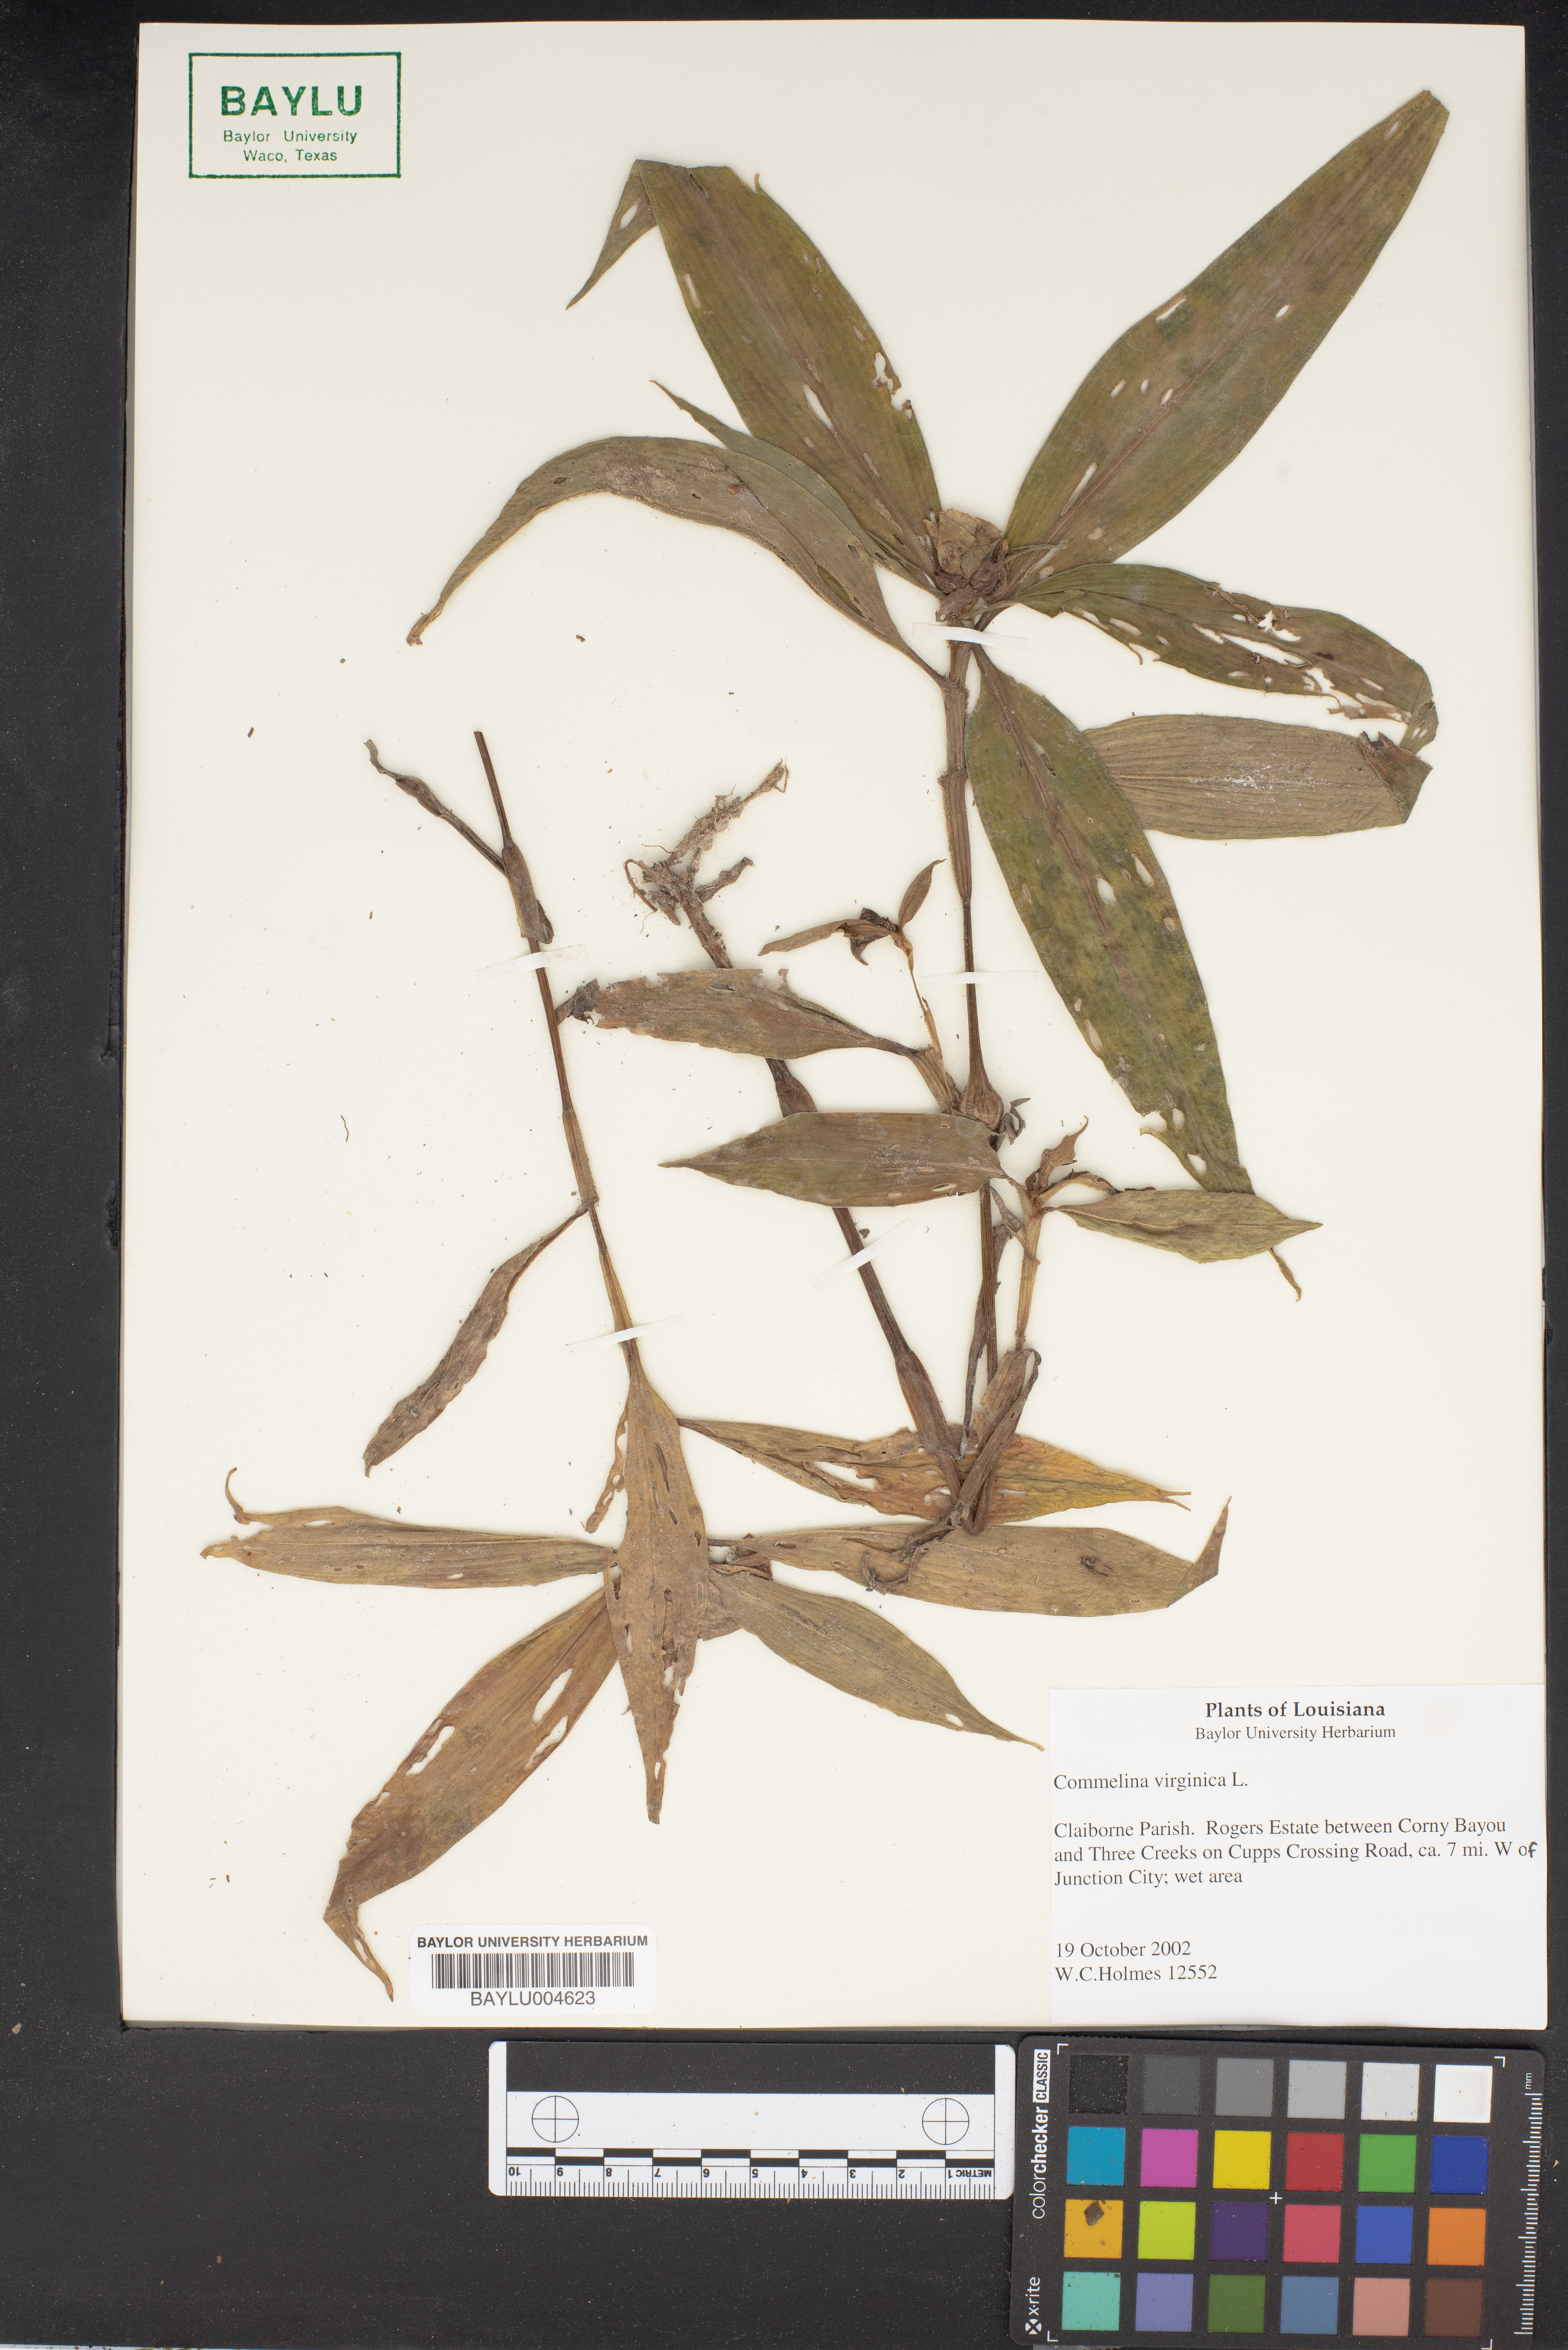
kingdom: Plantae
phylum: Tracheophyta
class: Liliopsida
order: Commelinales
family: Commelinaceae
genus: Commelina
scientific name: Commelina virginica
